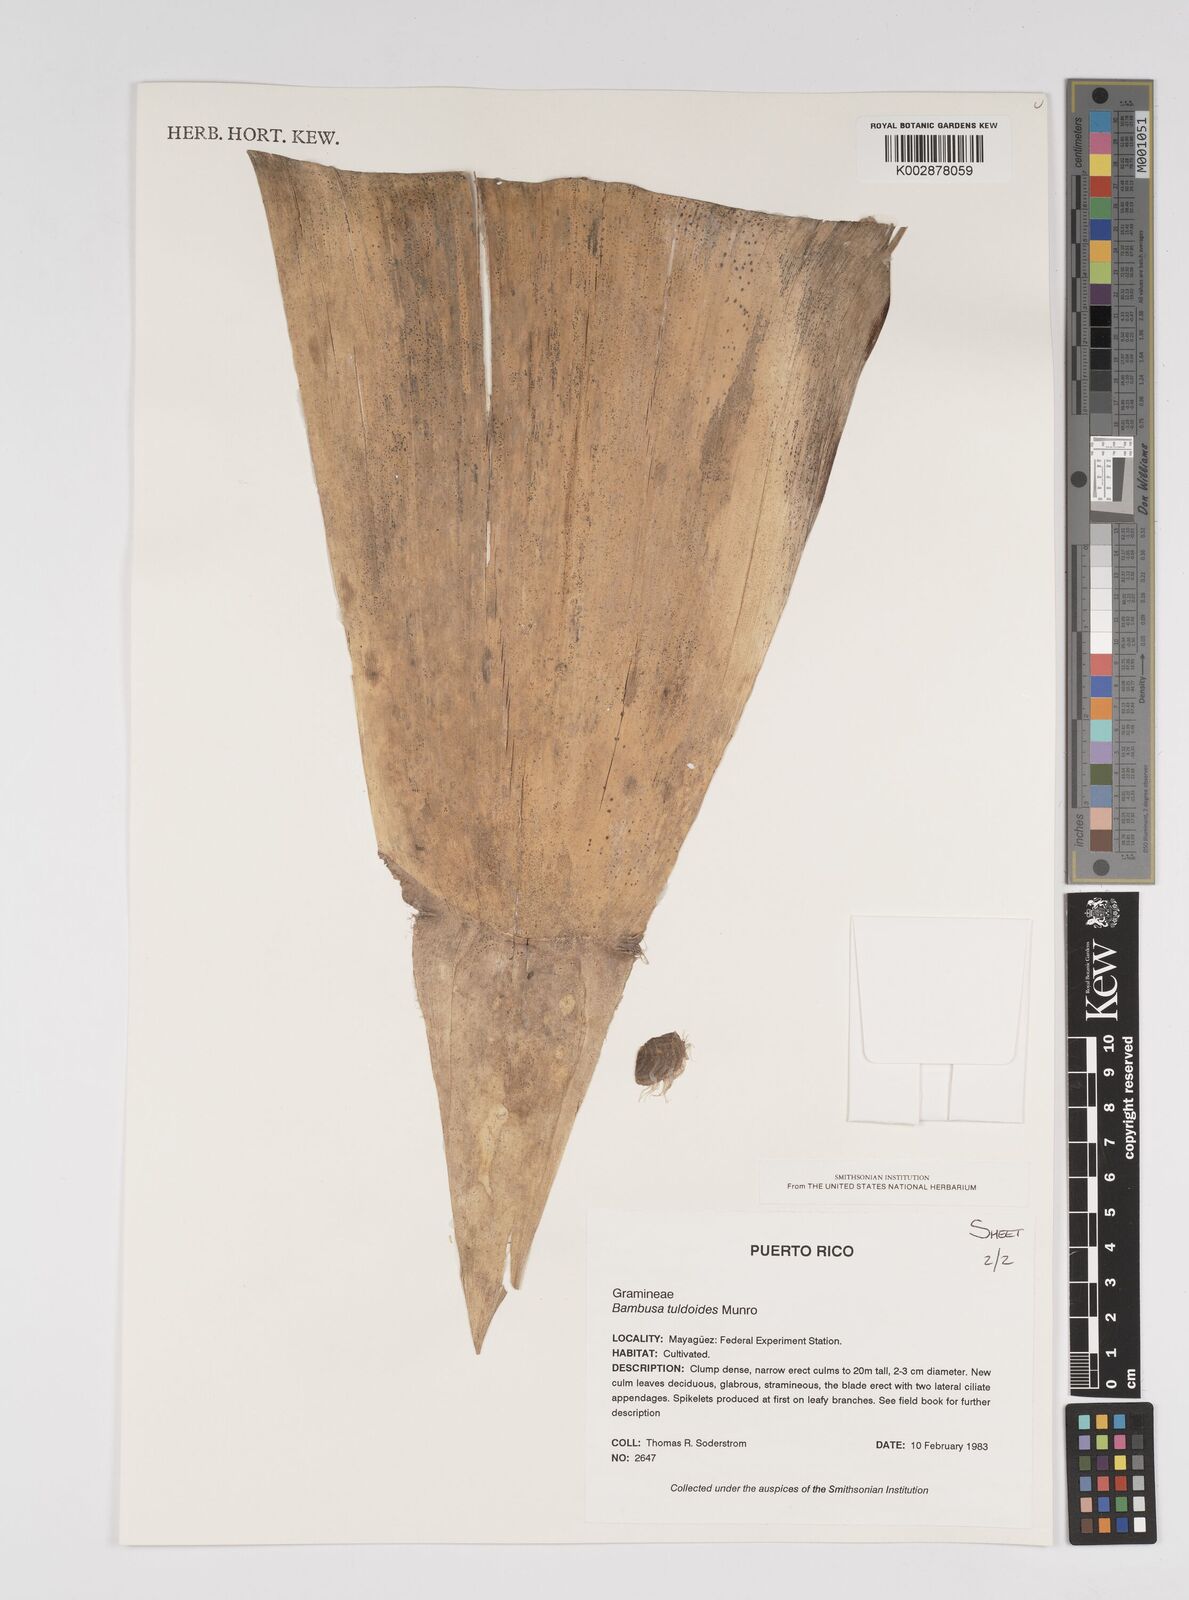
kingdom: Plantae
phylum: Tracheophyta
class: Liliopsida
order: Poales
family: Poaceae
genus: Bambusa
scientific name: Bambusa tuldoides
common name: Verdant bamboo
